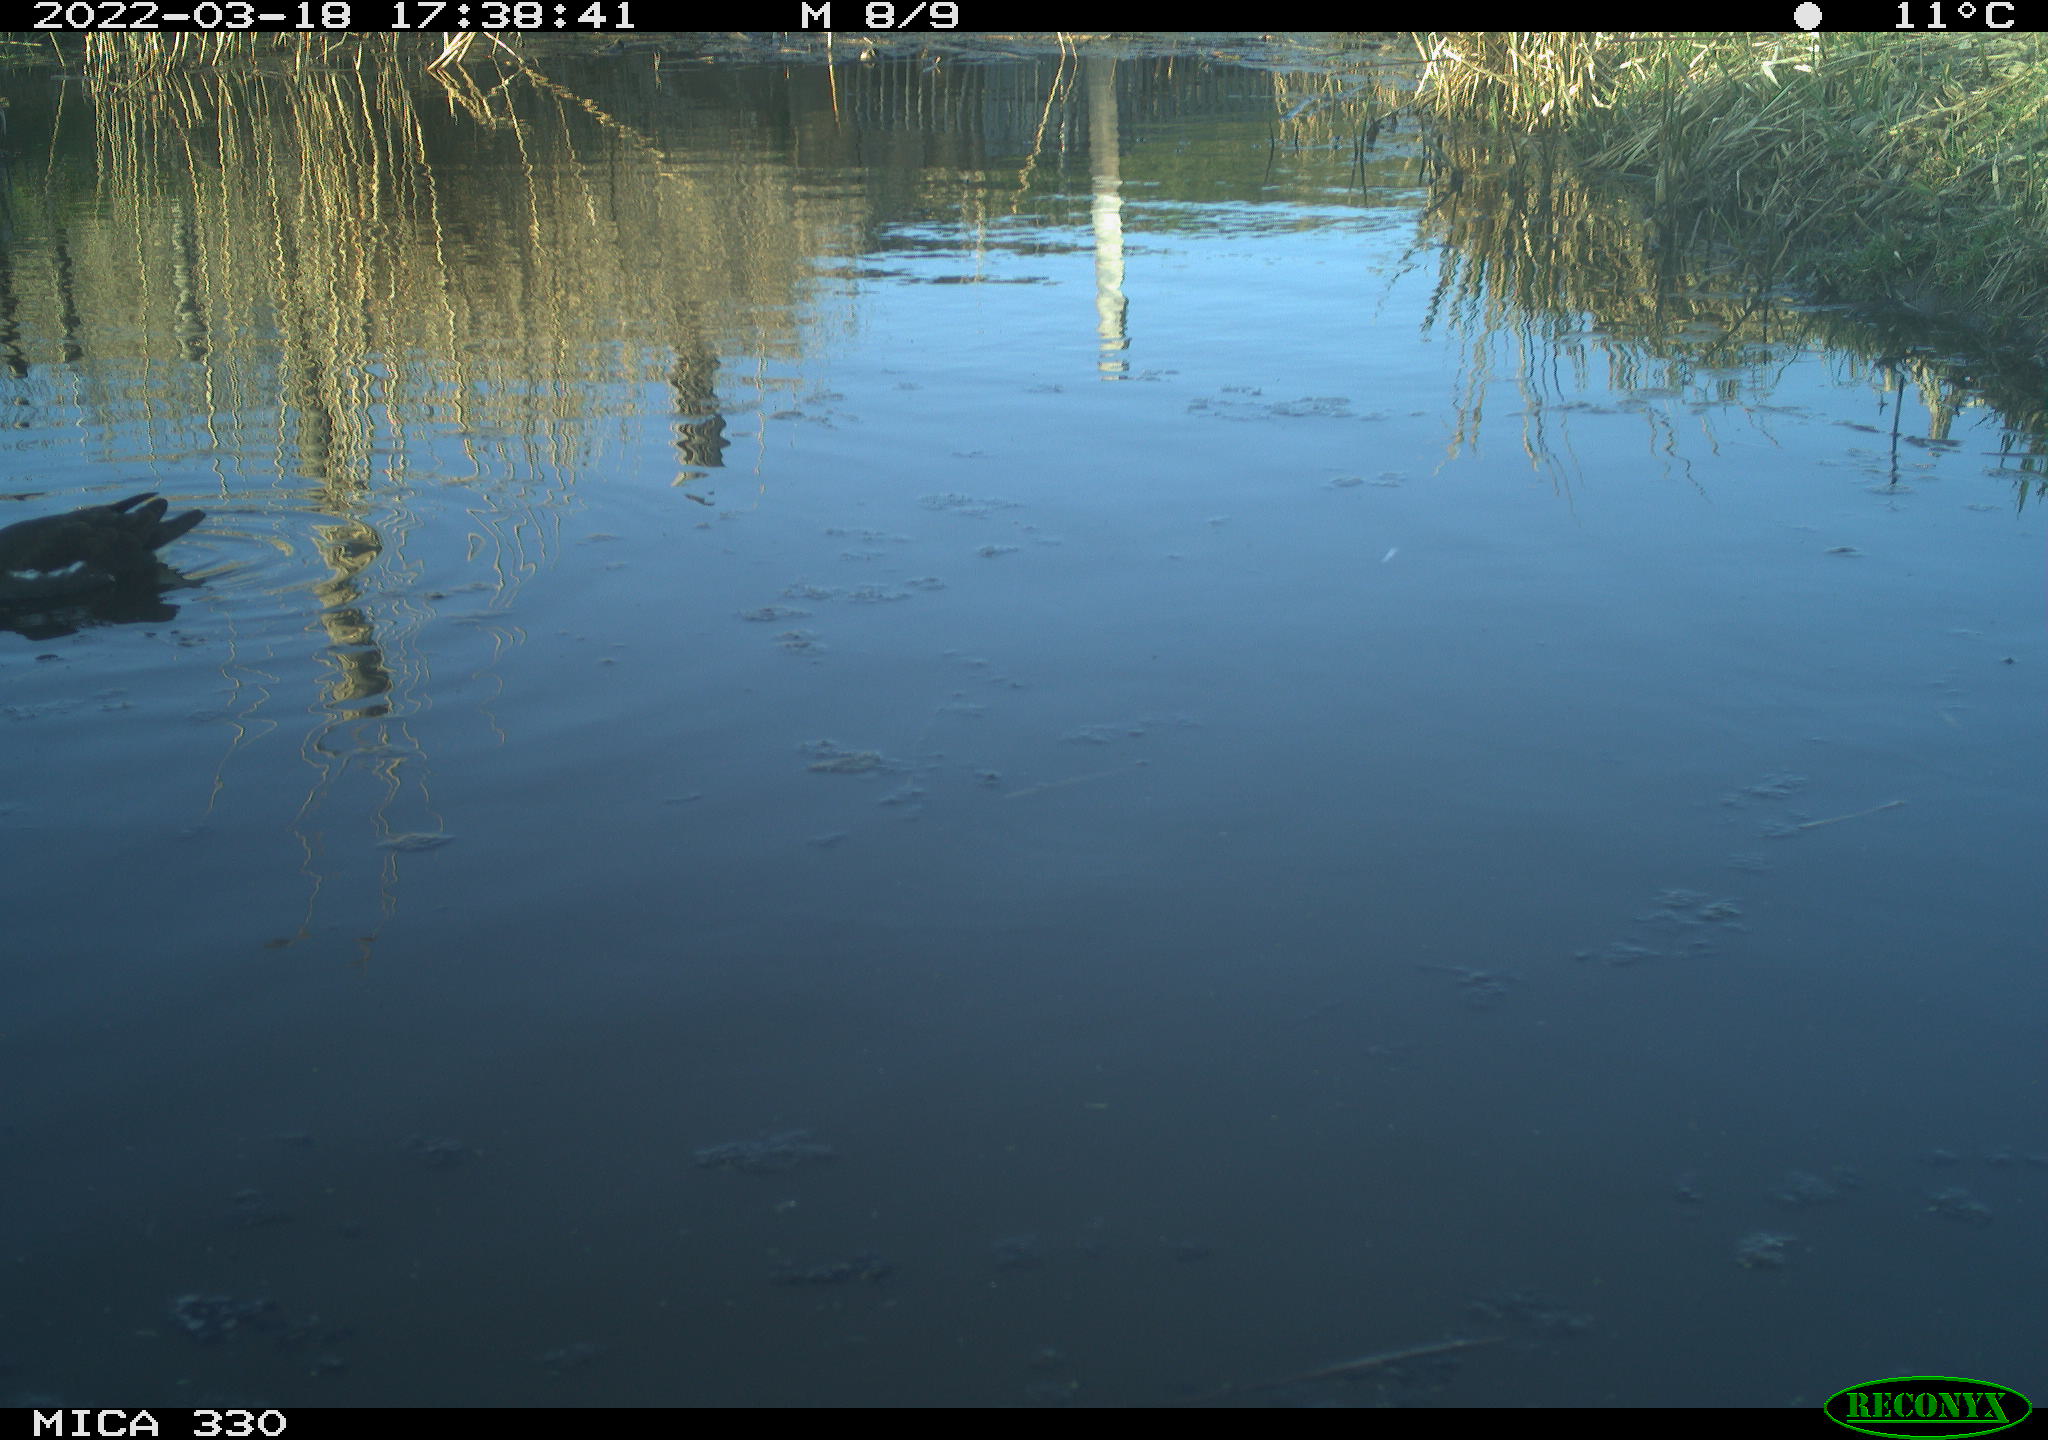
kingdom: Animalia
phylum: Chordata
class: Aves
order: Gruiformes
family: Rallidae
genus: Gallinula
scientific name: Gallinula chloropus
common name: Common moorhen
